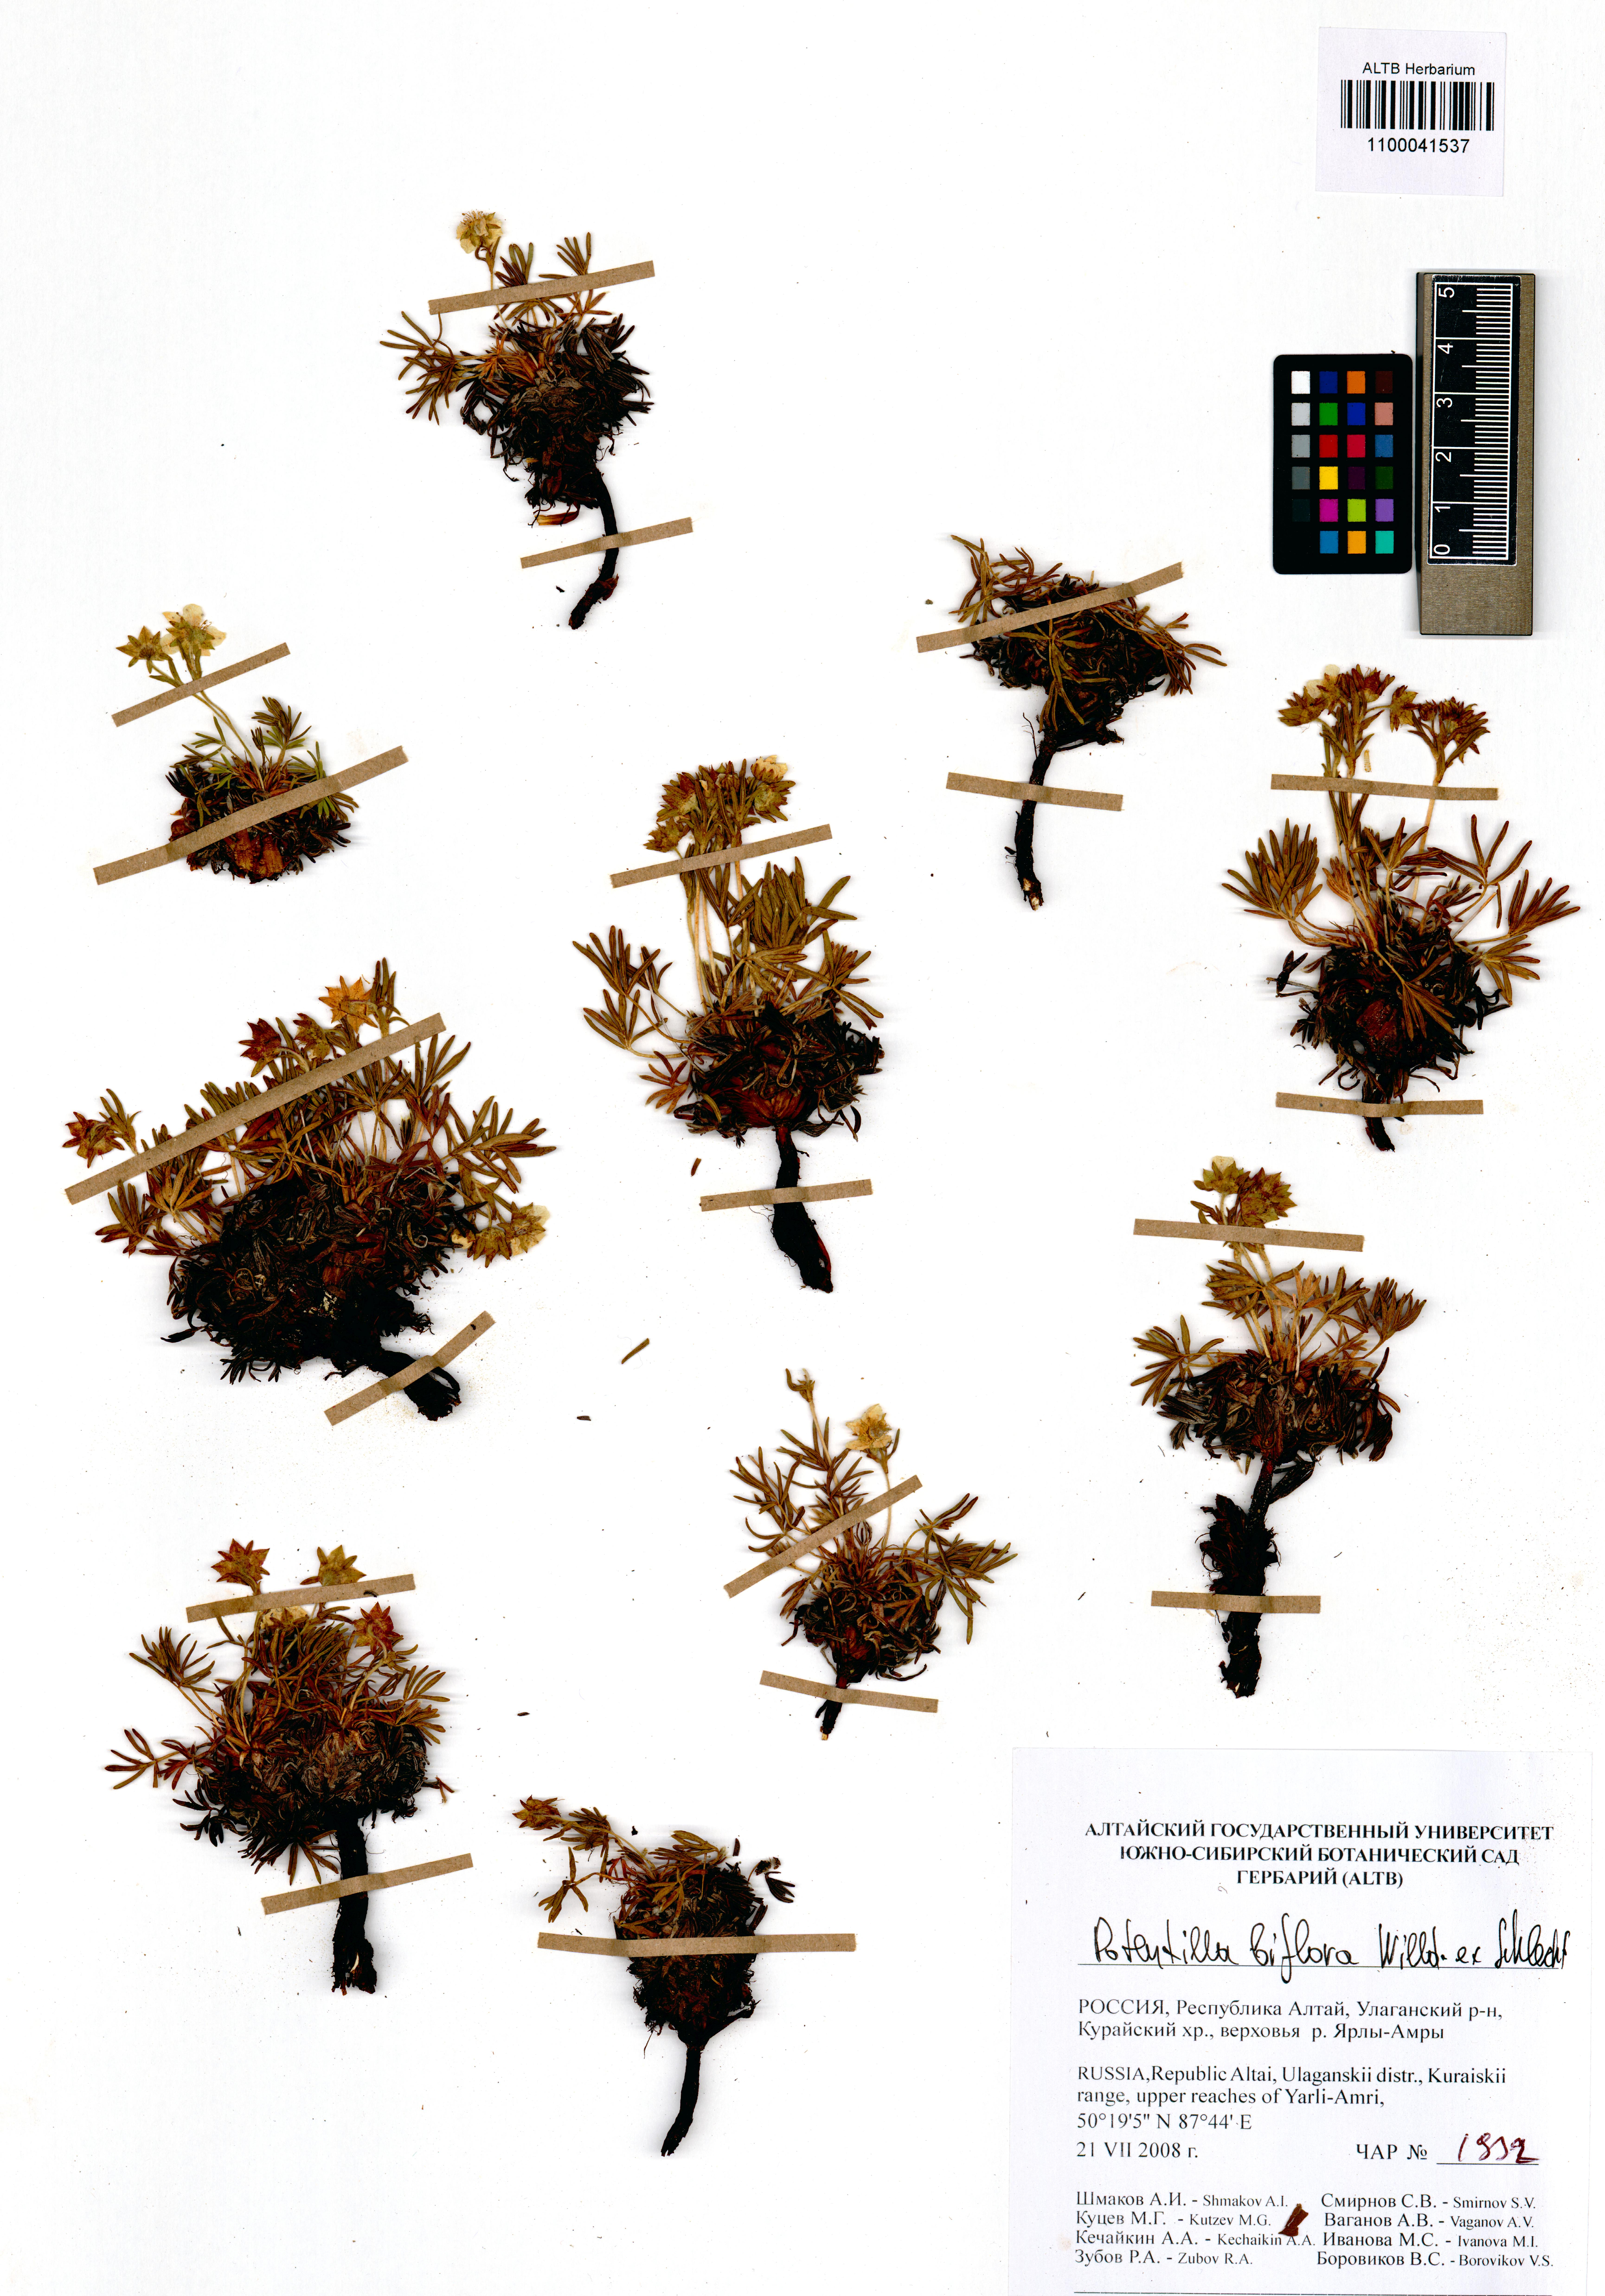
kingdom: Plantae
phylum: Tracheophyta
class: Magnoliopsida
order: Rosales
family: Rosaceae
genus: Potentilla
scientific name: Potentilla biflora
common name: Two-flowered cinquefoil
